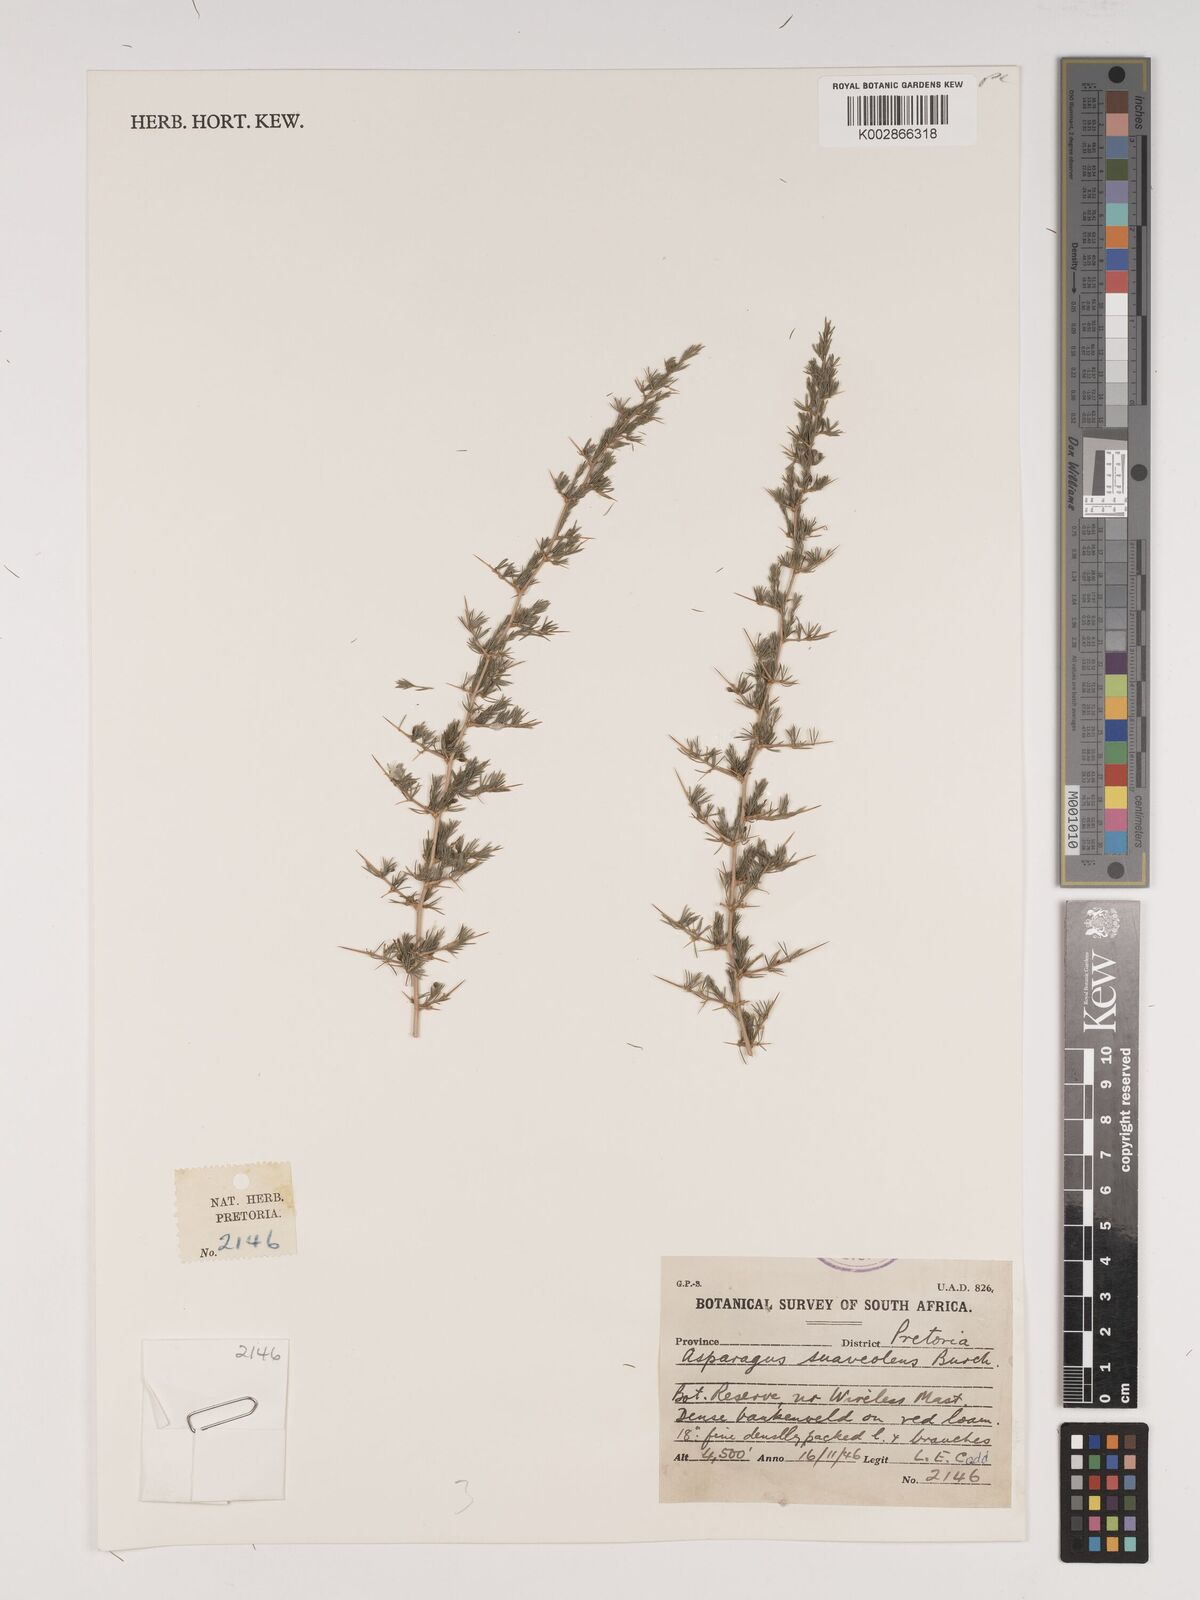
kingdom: Plantae
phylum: Tracheophyta
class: Liliopsida
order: Asparagales
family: Asparagaceae
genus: Asparagus
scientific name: Asparagus suaveolens
